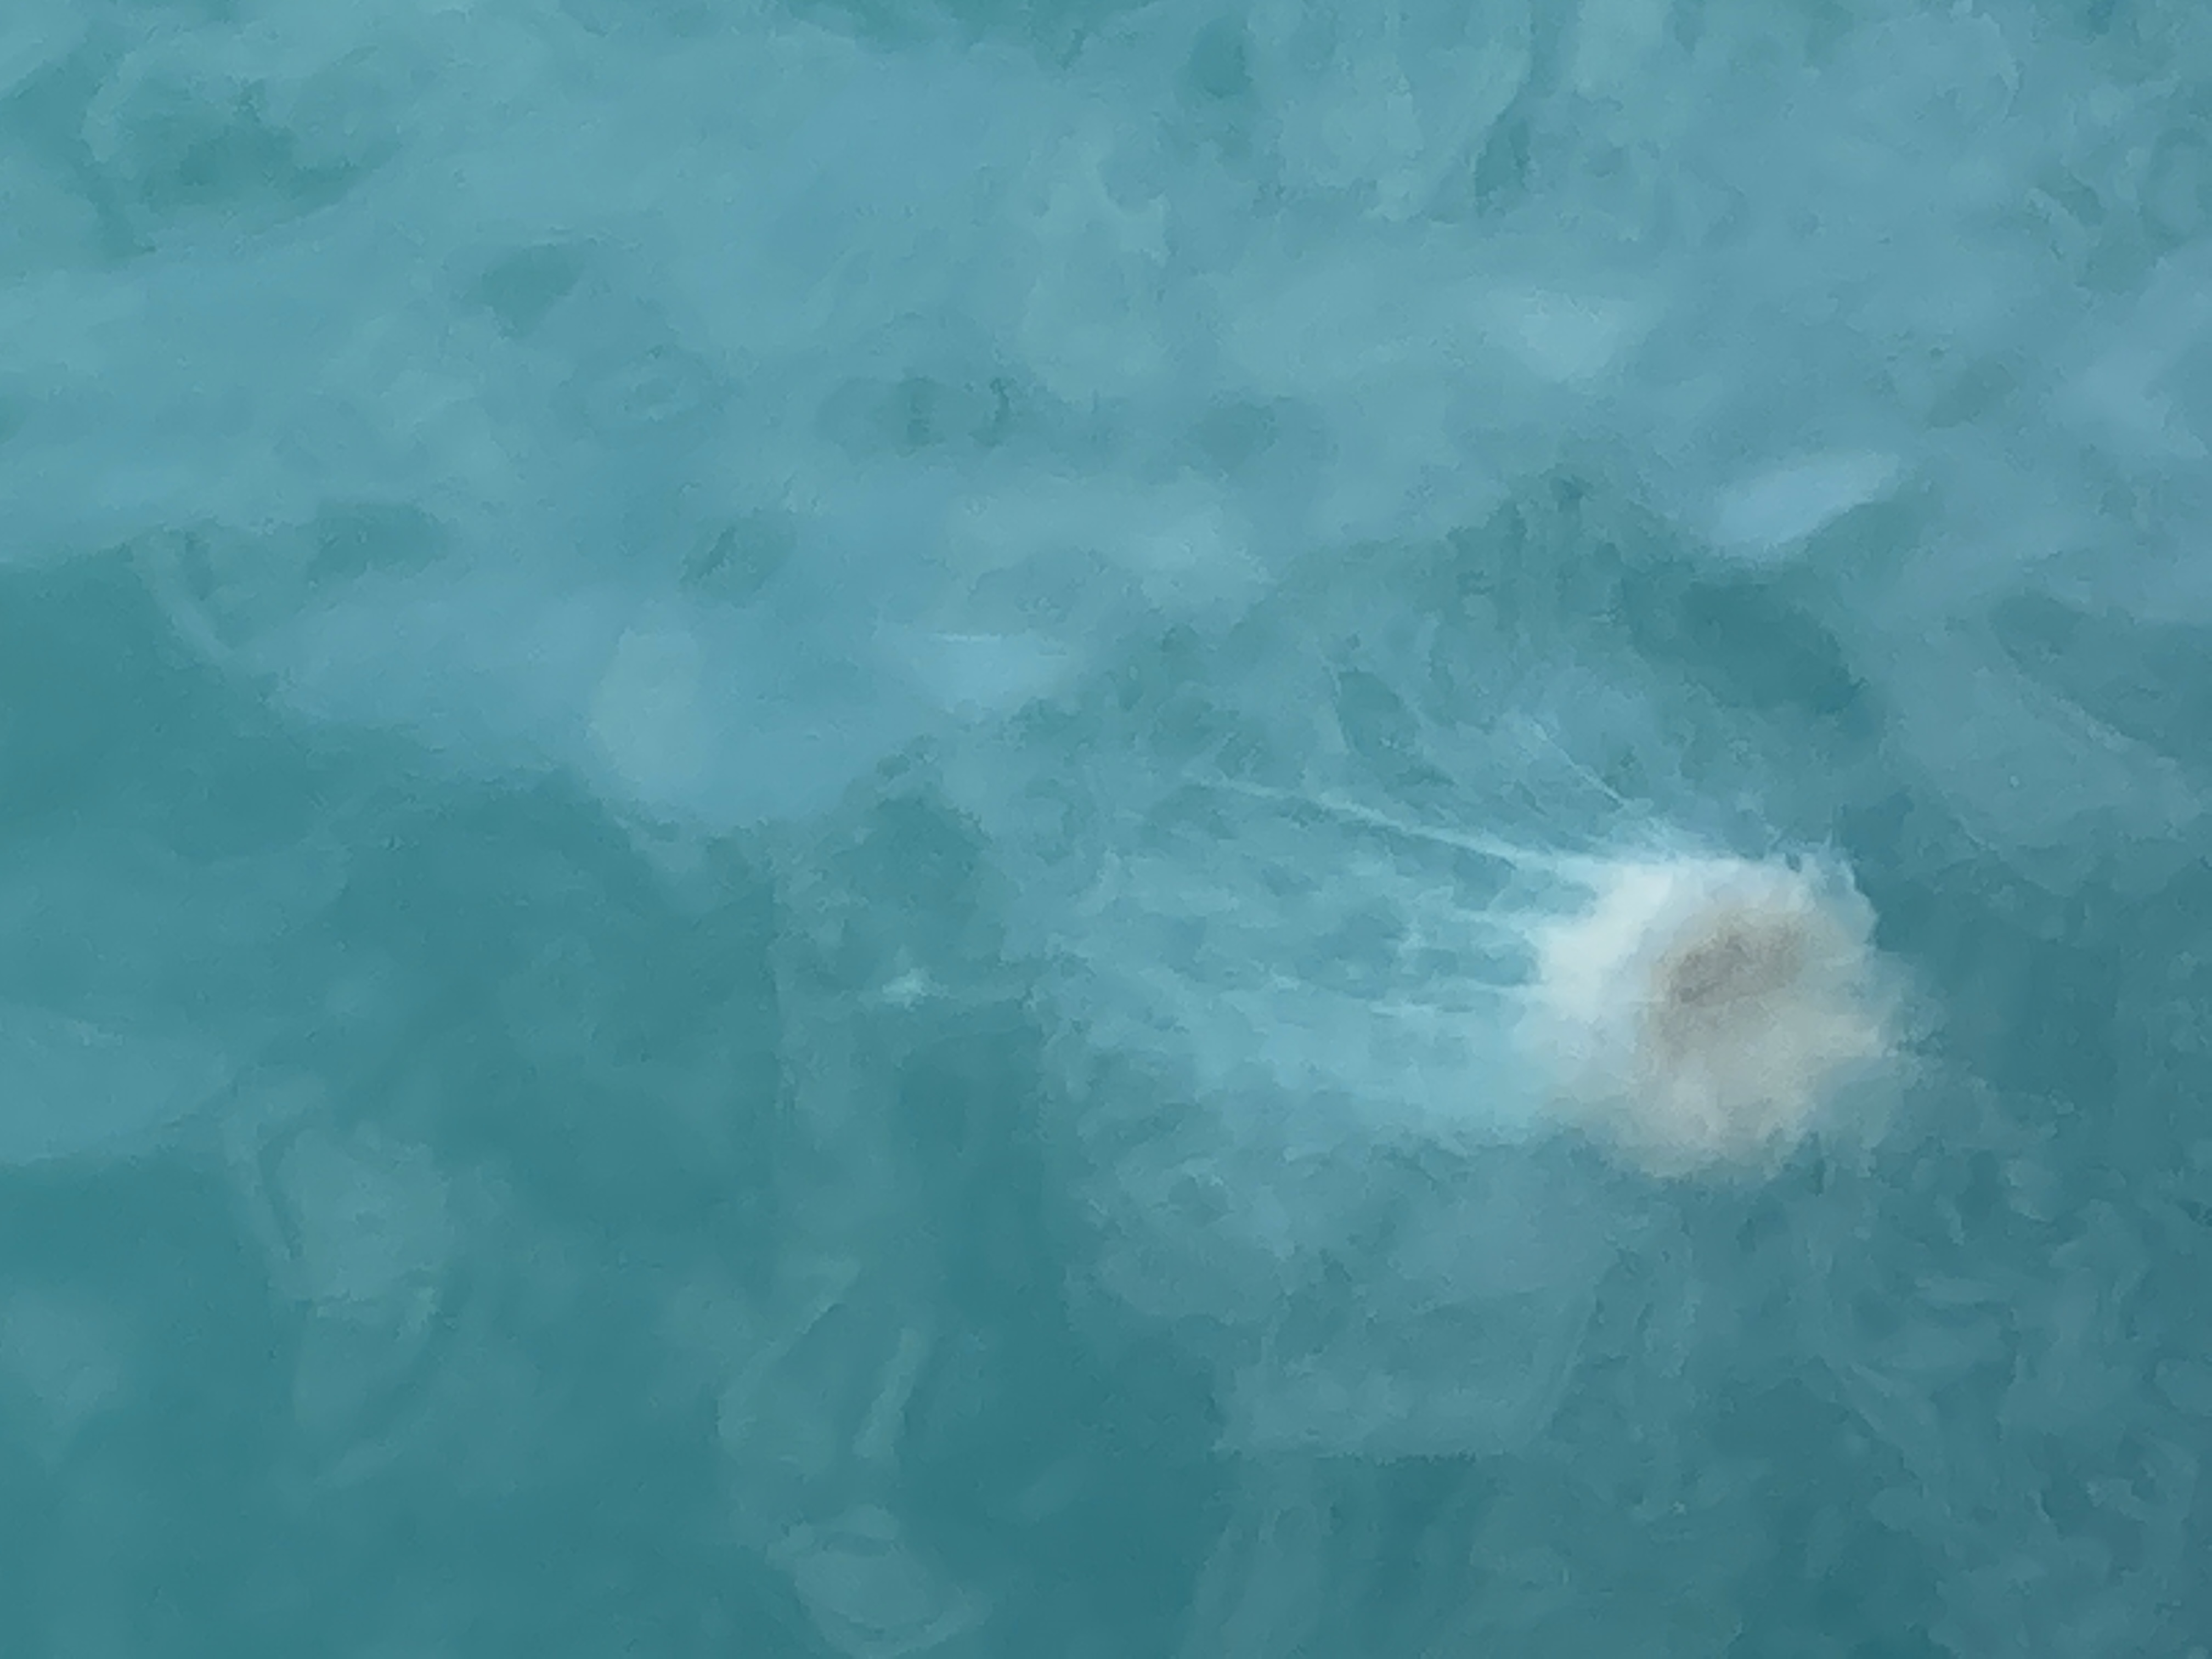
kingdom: Animalia
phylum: Cnidaria
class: Scyphozoa
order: Semaeostomeae
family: Cyaneidae
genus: Cyanea
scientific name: Cyanea nozakii
